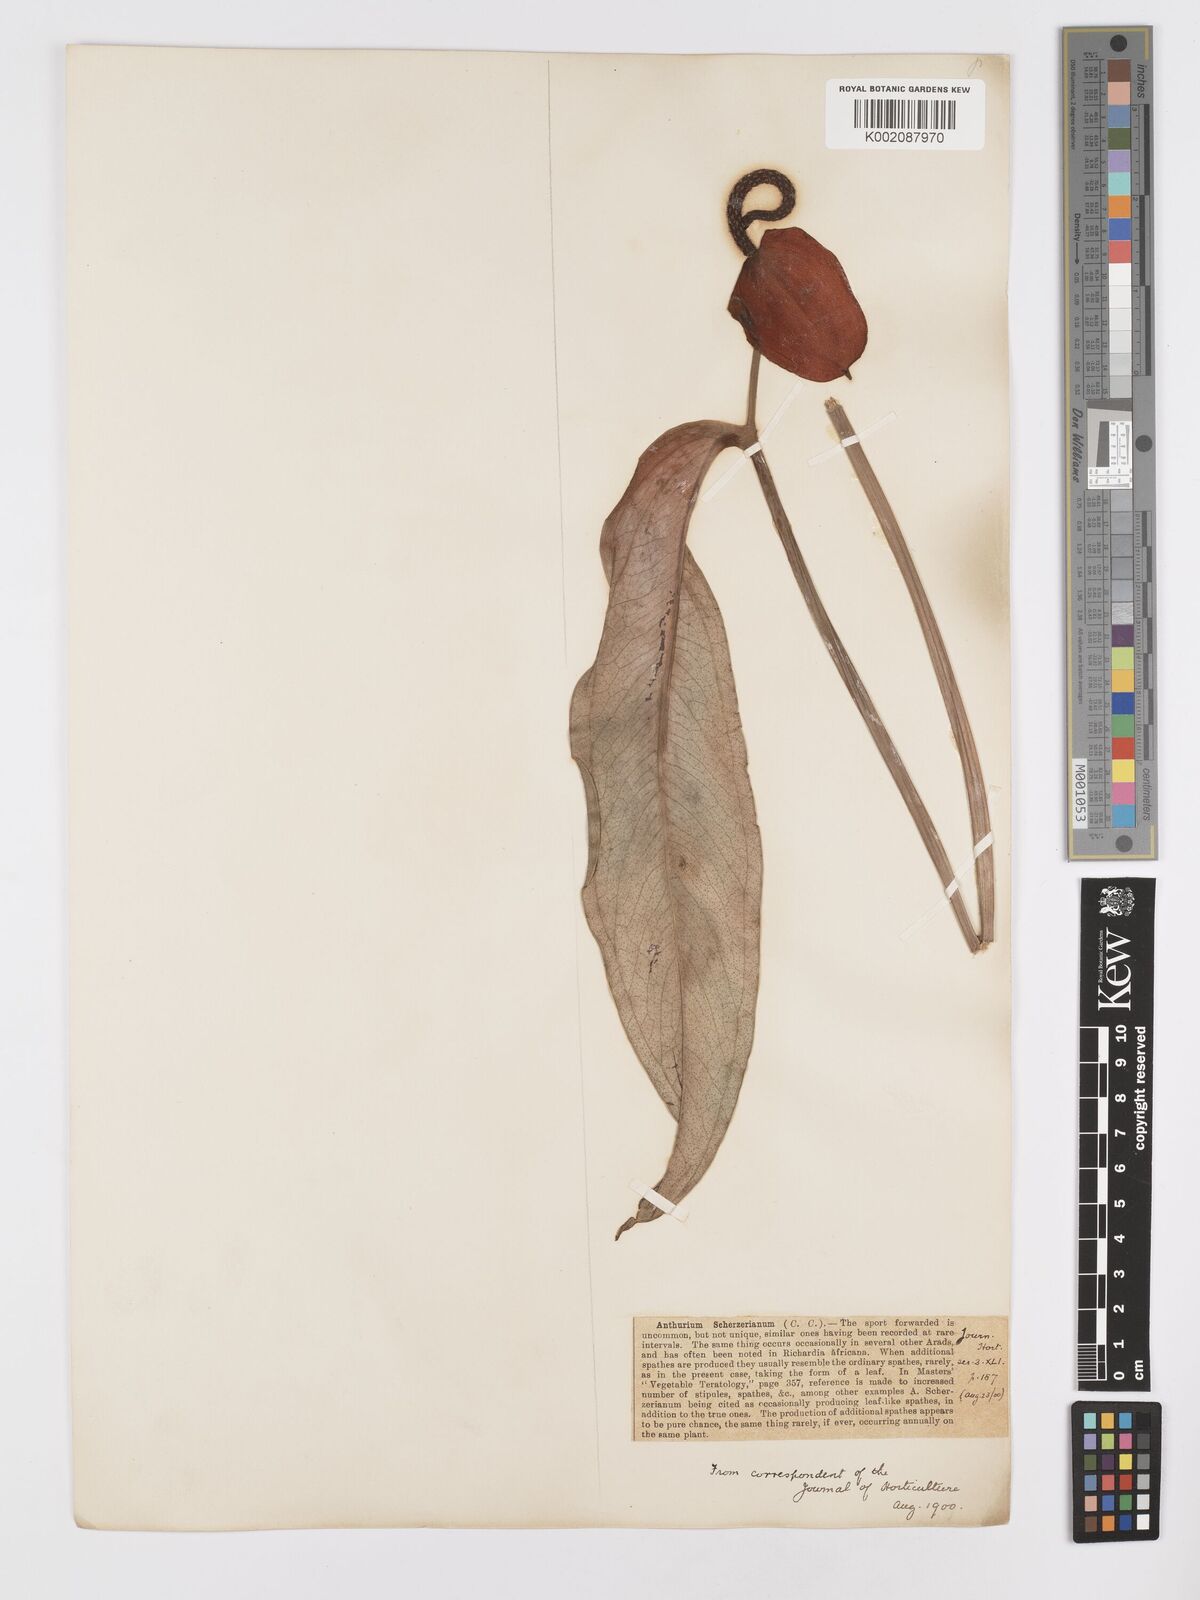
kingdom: Plantae
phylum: Tracheophyta
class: Liliopsida
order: Alismatales
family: Araceae
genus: Anthurium
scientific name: Anthurium scherzerianum
